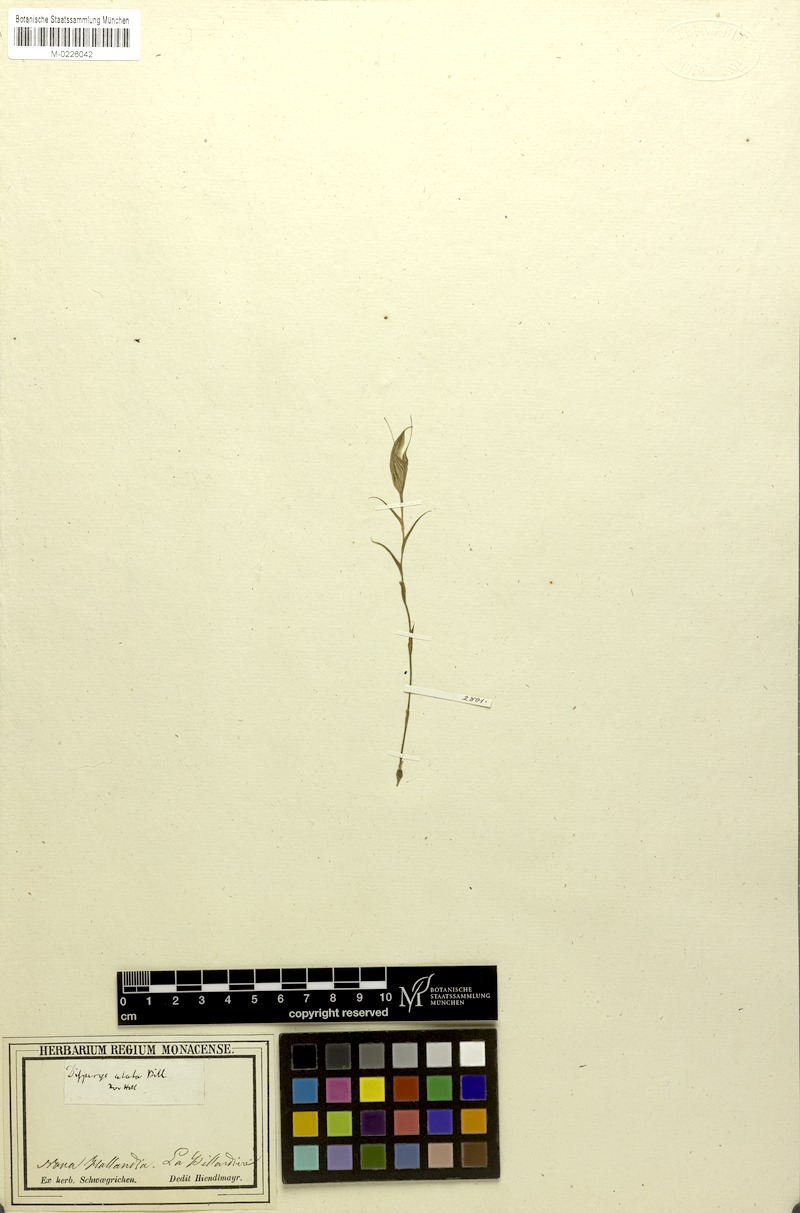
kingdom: Plantae
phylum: Tracheophyta
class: Liliopsida
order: Asparagales
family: Orchidaceae
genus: Pterostylis
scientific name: Pterostylis alata
